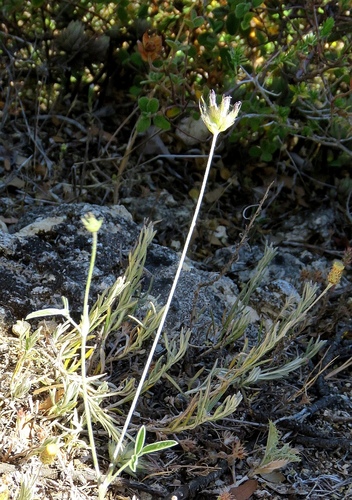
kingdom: Plantae
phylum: Tracheophyta
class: Magnoliopsida
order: Fabales
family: Fabaceae
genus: Bituminaria
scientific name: Bituminaria bituminosa
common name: Arabian pea
